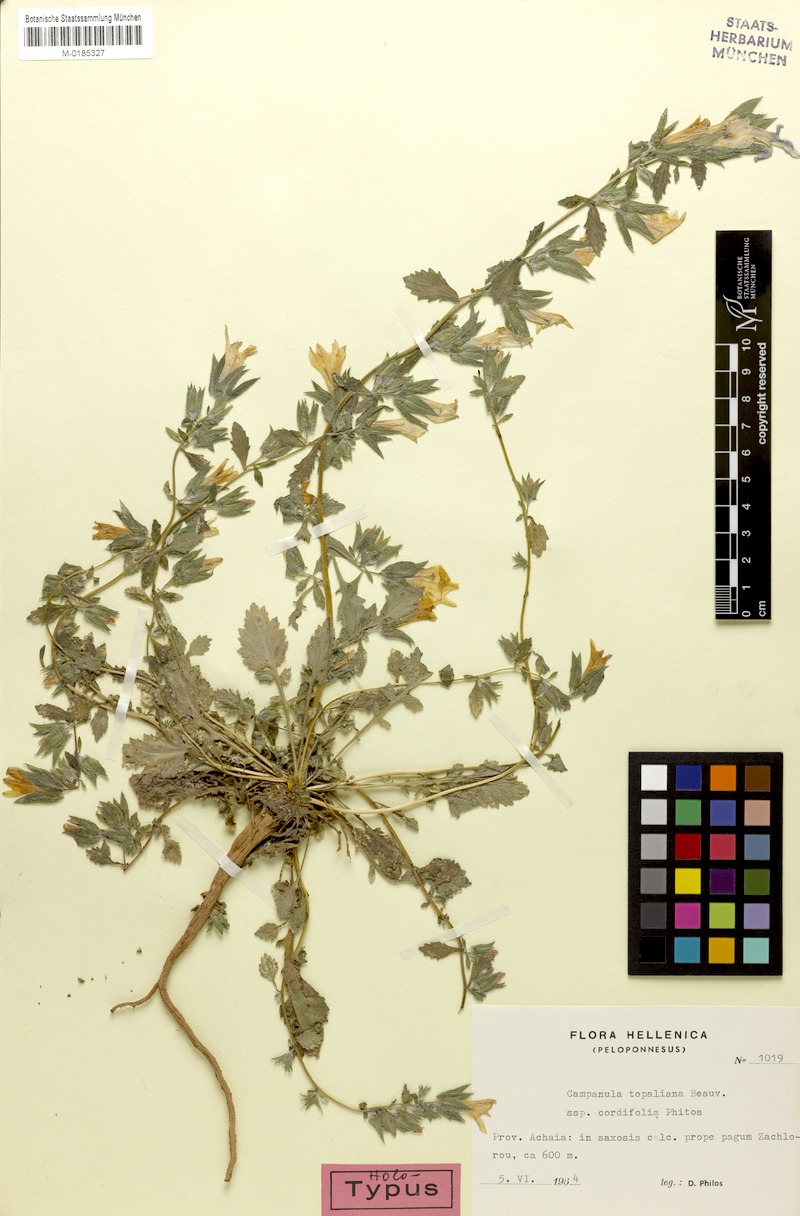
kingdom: Plantae
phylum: Tracheophyta
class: Magnoliopsida
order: Asterales
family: Campanulaceae
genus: Campanula
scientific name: Campanula topaliana
